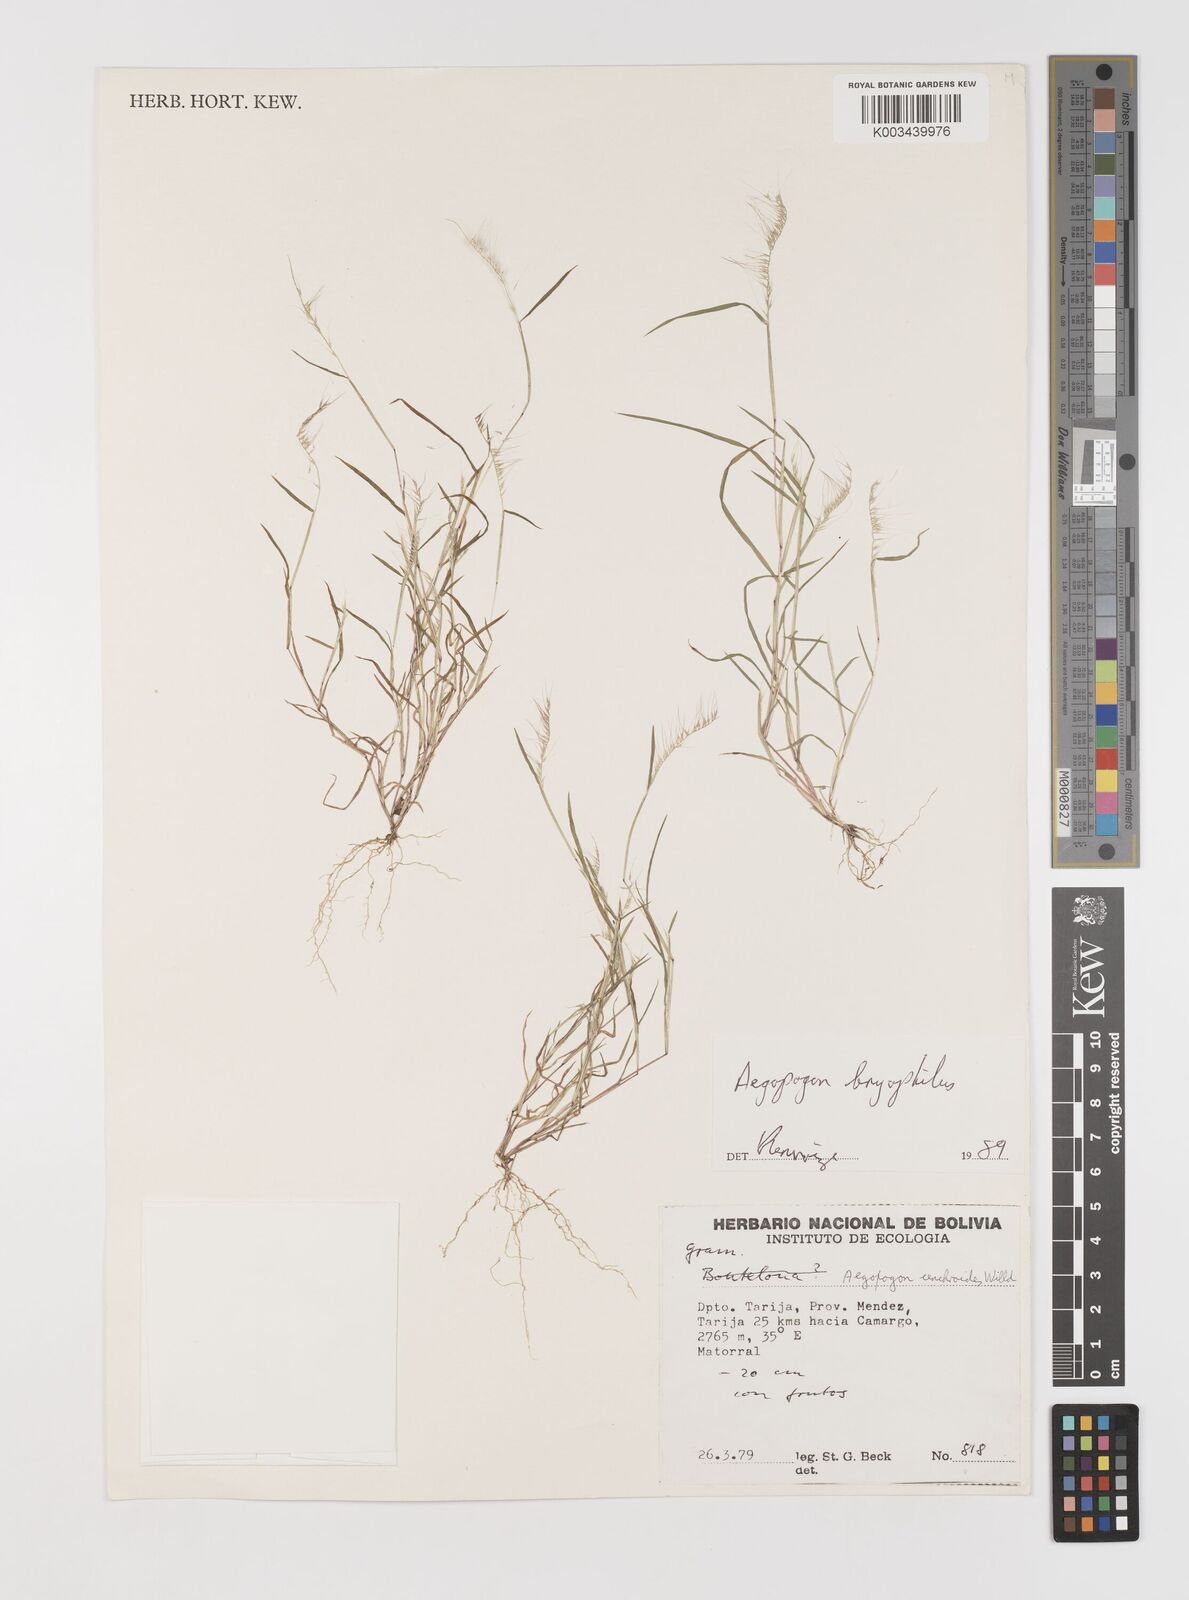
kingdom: Plantae
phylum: Tracheophyta
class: Liliopsida
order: Poales
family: Poaceae
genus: Muhlenbergia
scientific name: Muhlenbergia bryophilus
